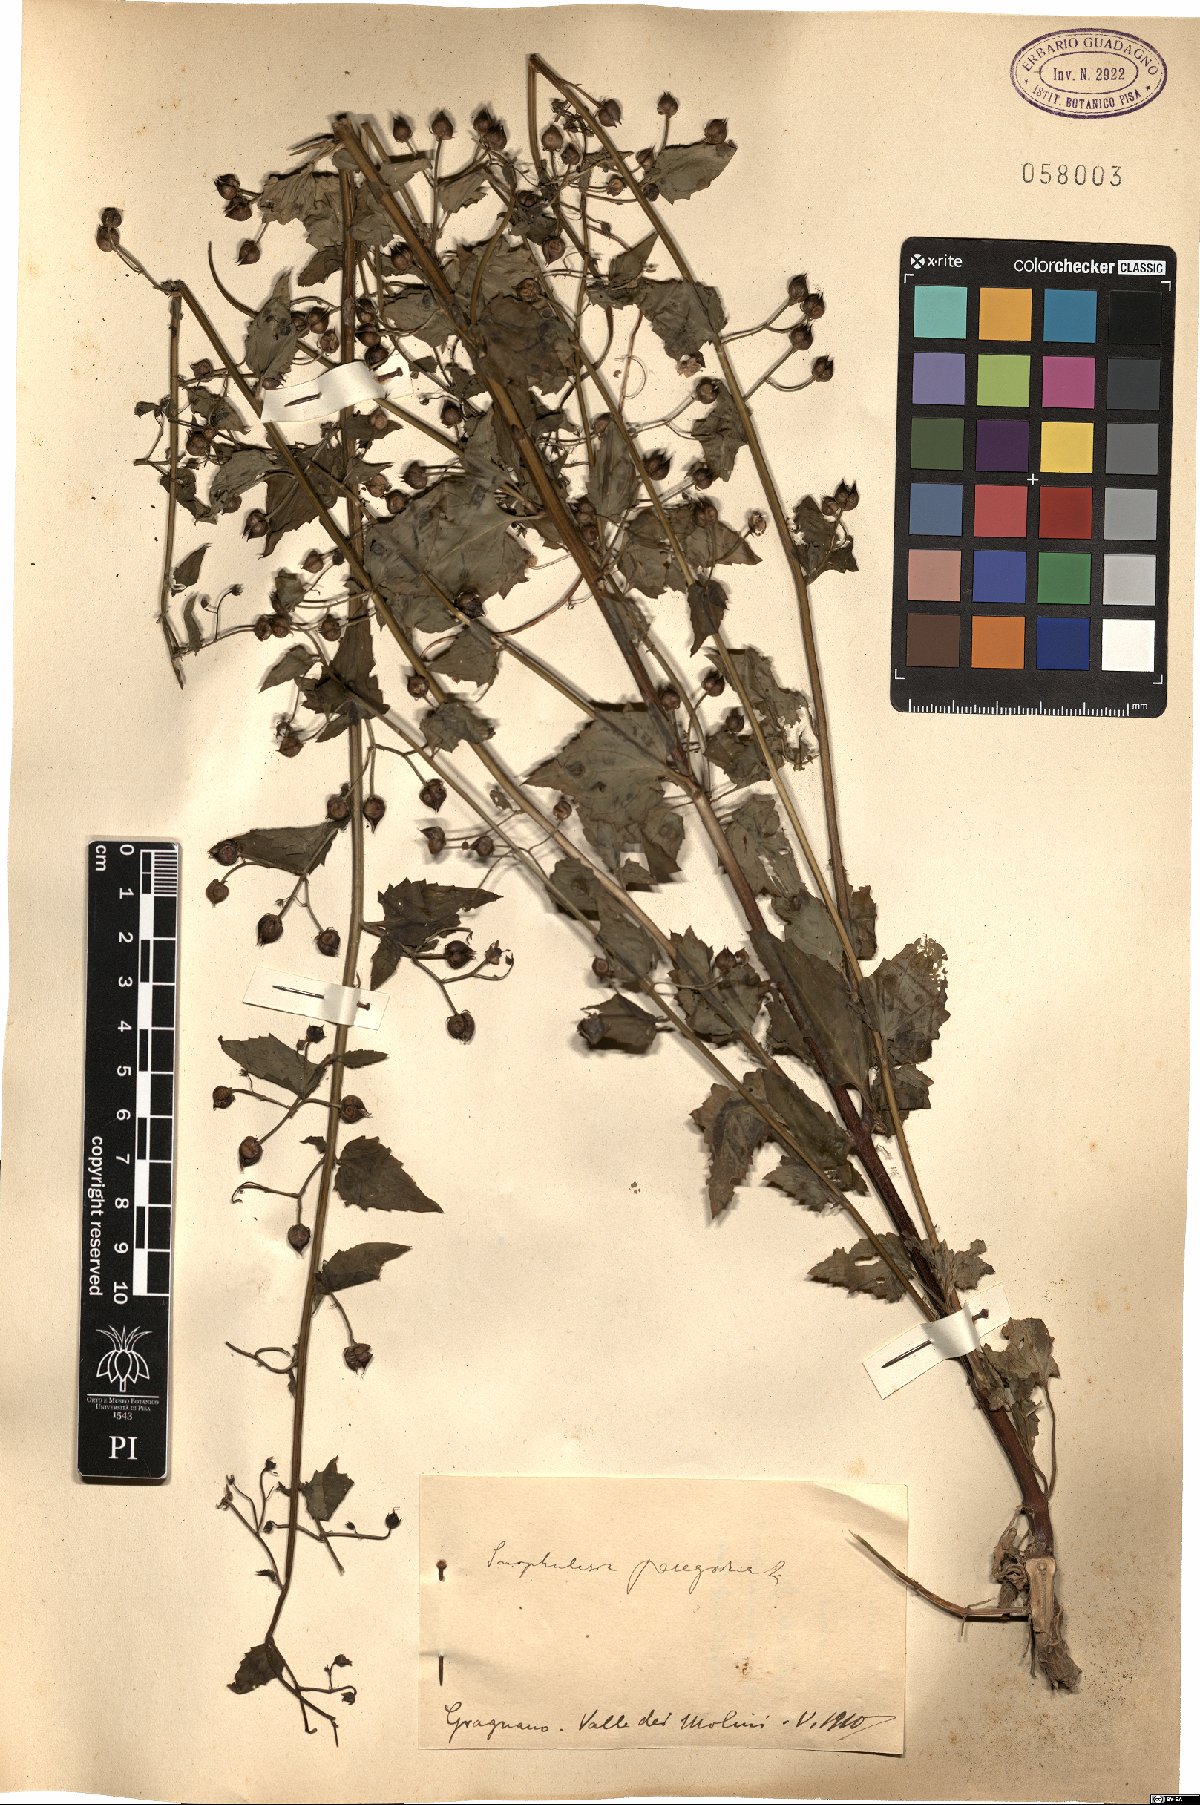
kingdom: Plantae
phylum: Tracheophyta
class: Magnoliopsida
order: Lamiales
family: Scrophulariaceae
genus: Scrophularia
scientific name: Scrophularia peregrina
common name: Mediterranean figwort
